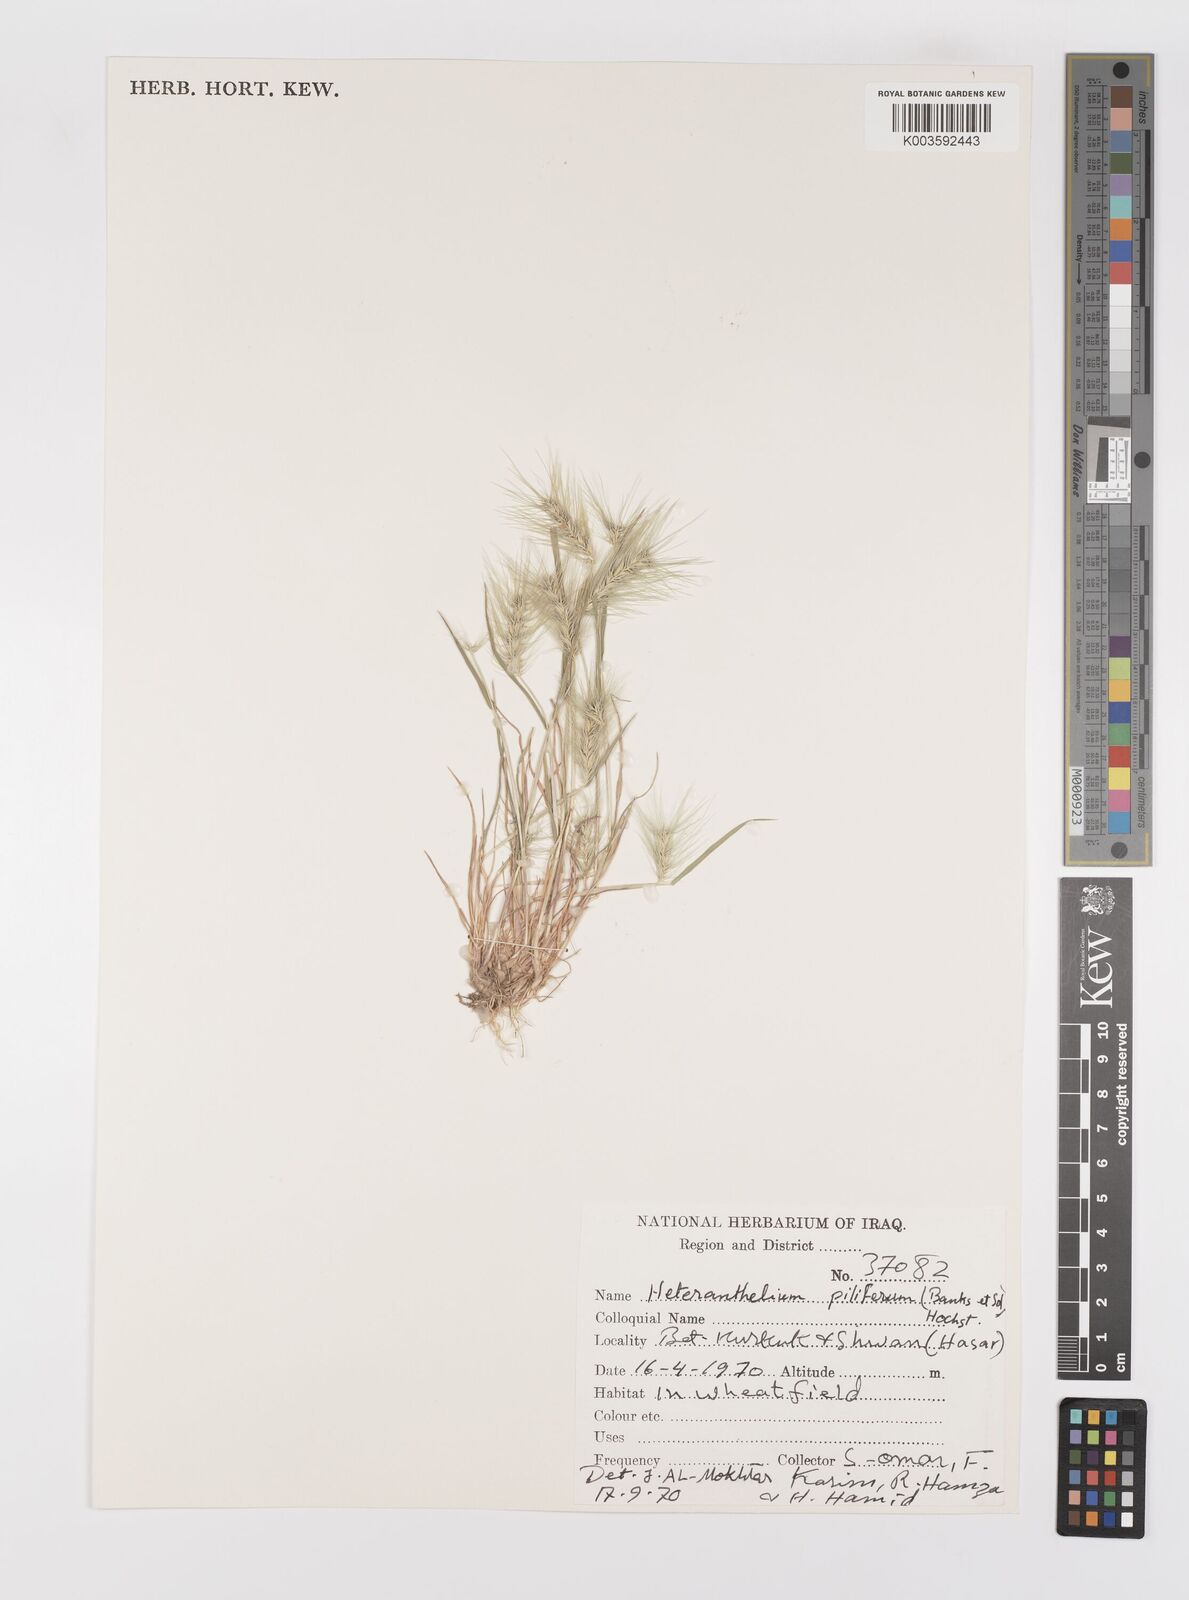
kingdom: Plantae
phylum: Tracheophyta
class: Liliopsida
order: Poales
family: Poaceae
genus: Heteranthelium
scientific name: Heteranthelium piliferum
